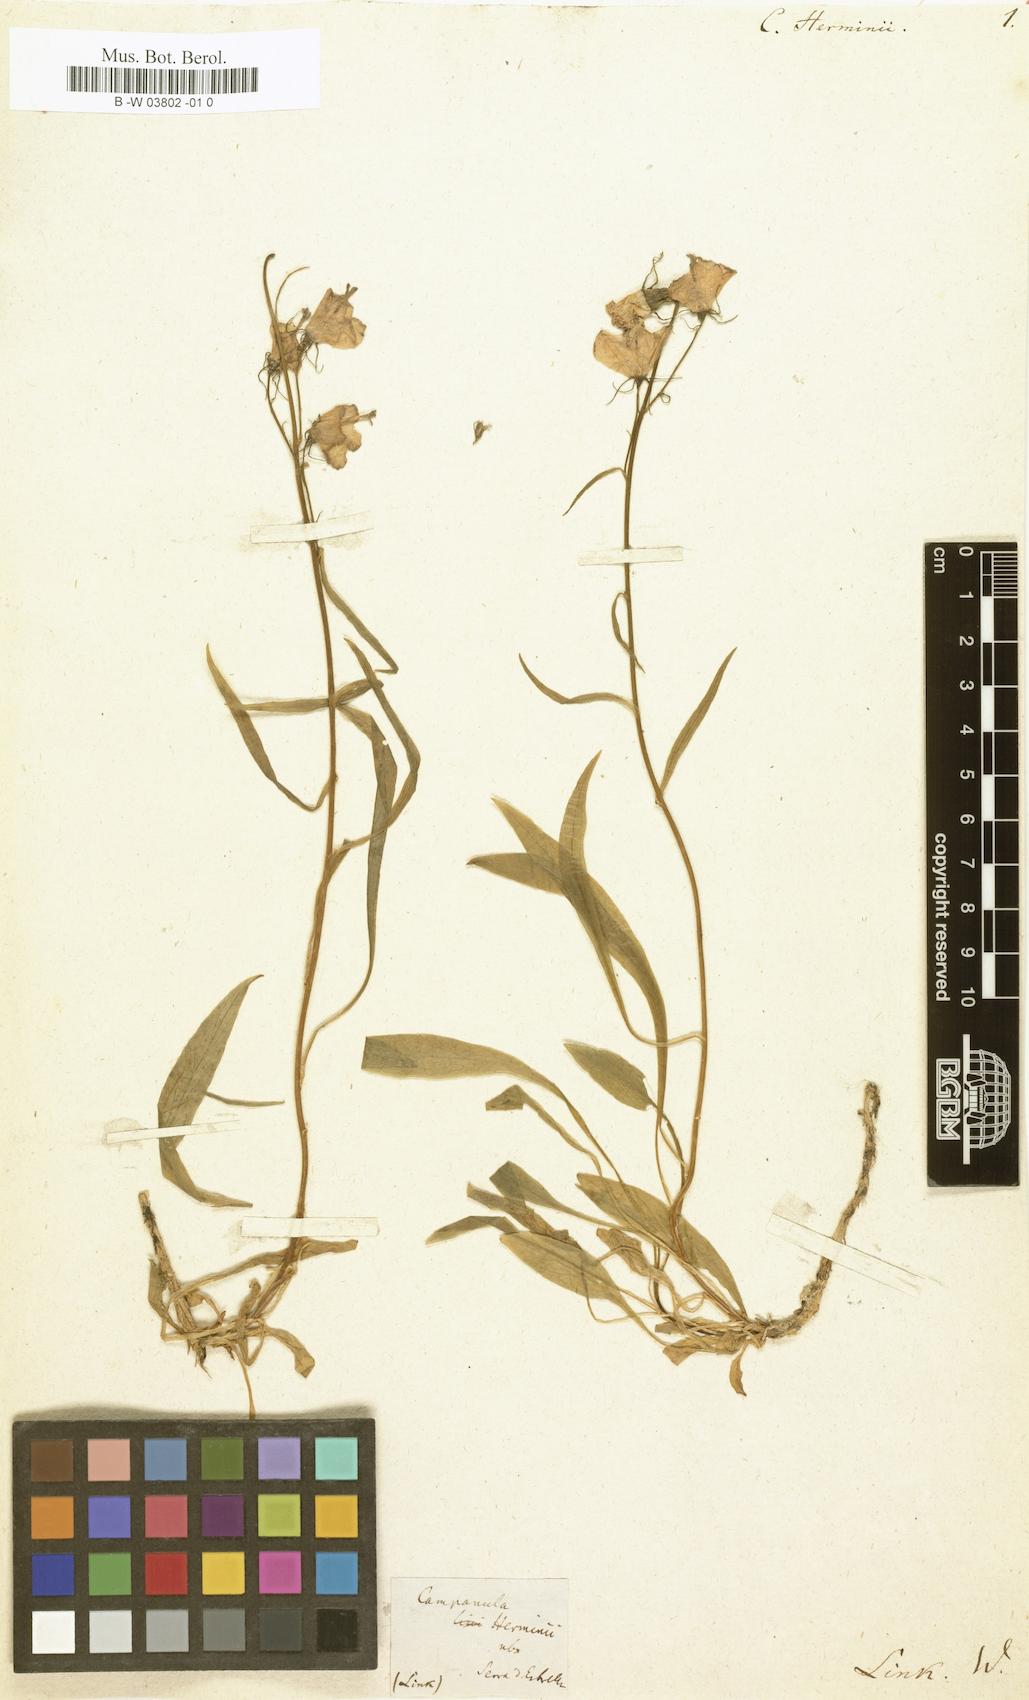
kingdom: Plantae
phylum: Tracheophyta
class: Magnoliopsida
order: Asterales
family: Campanulaceae
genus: Campanula
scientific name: Campanula herminii
